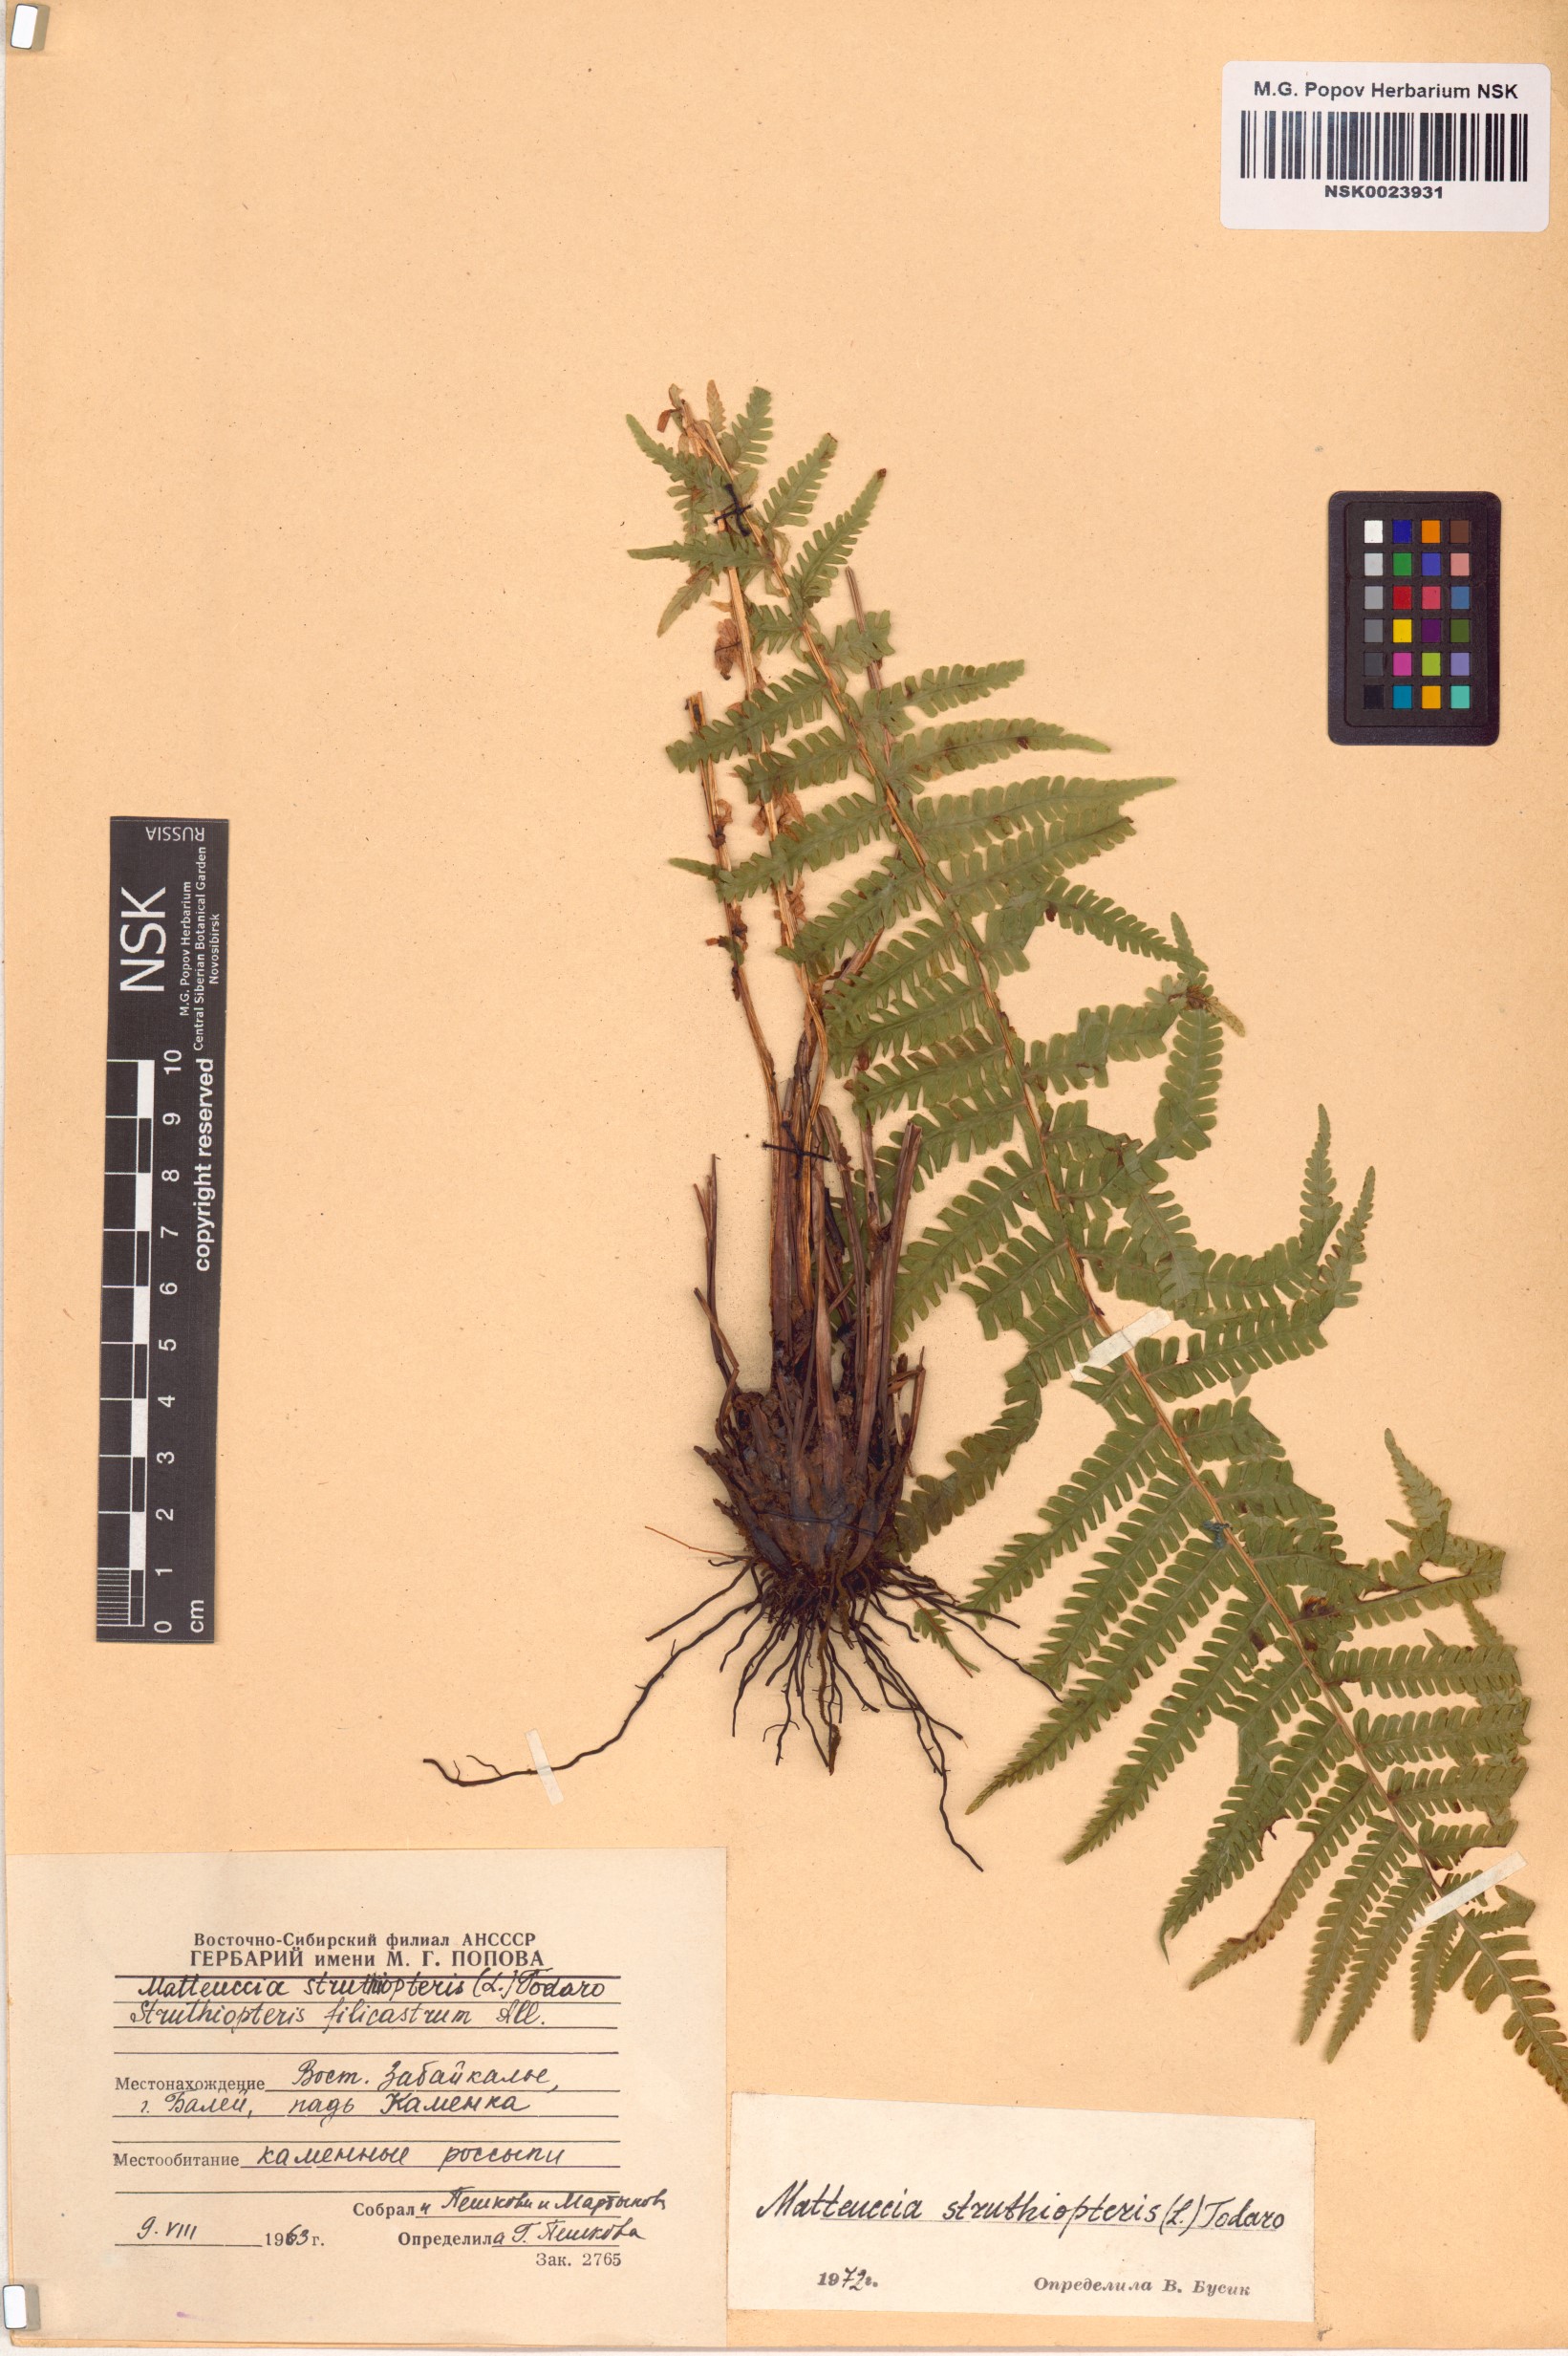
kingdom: Plantae
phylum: Tracheophyta
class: Polypodiopsida
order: Polypodiales
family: Onocleaceae
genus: Matteuccia
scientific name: Matteuccia struthiopteris
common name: Ostrich fern
